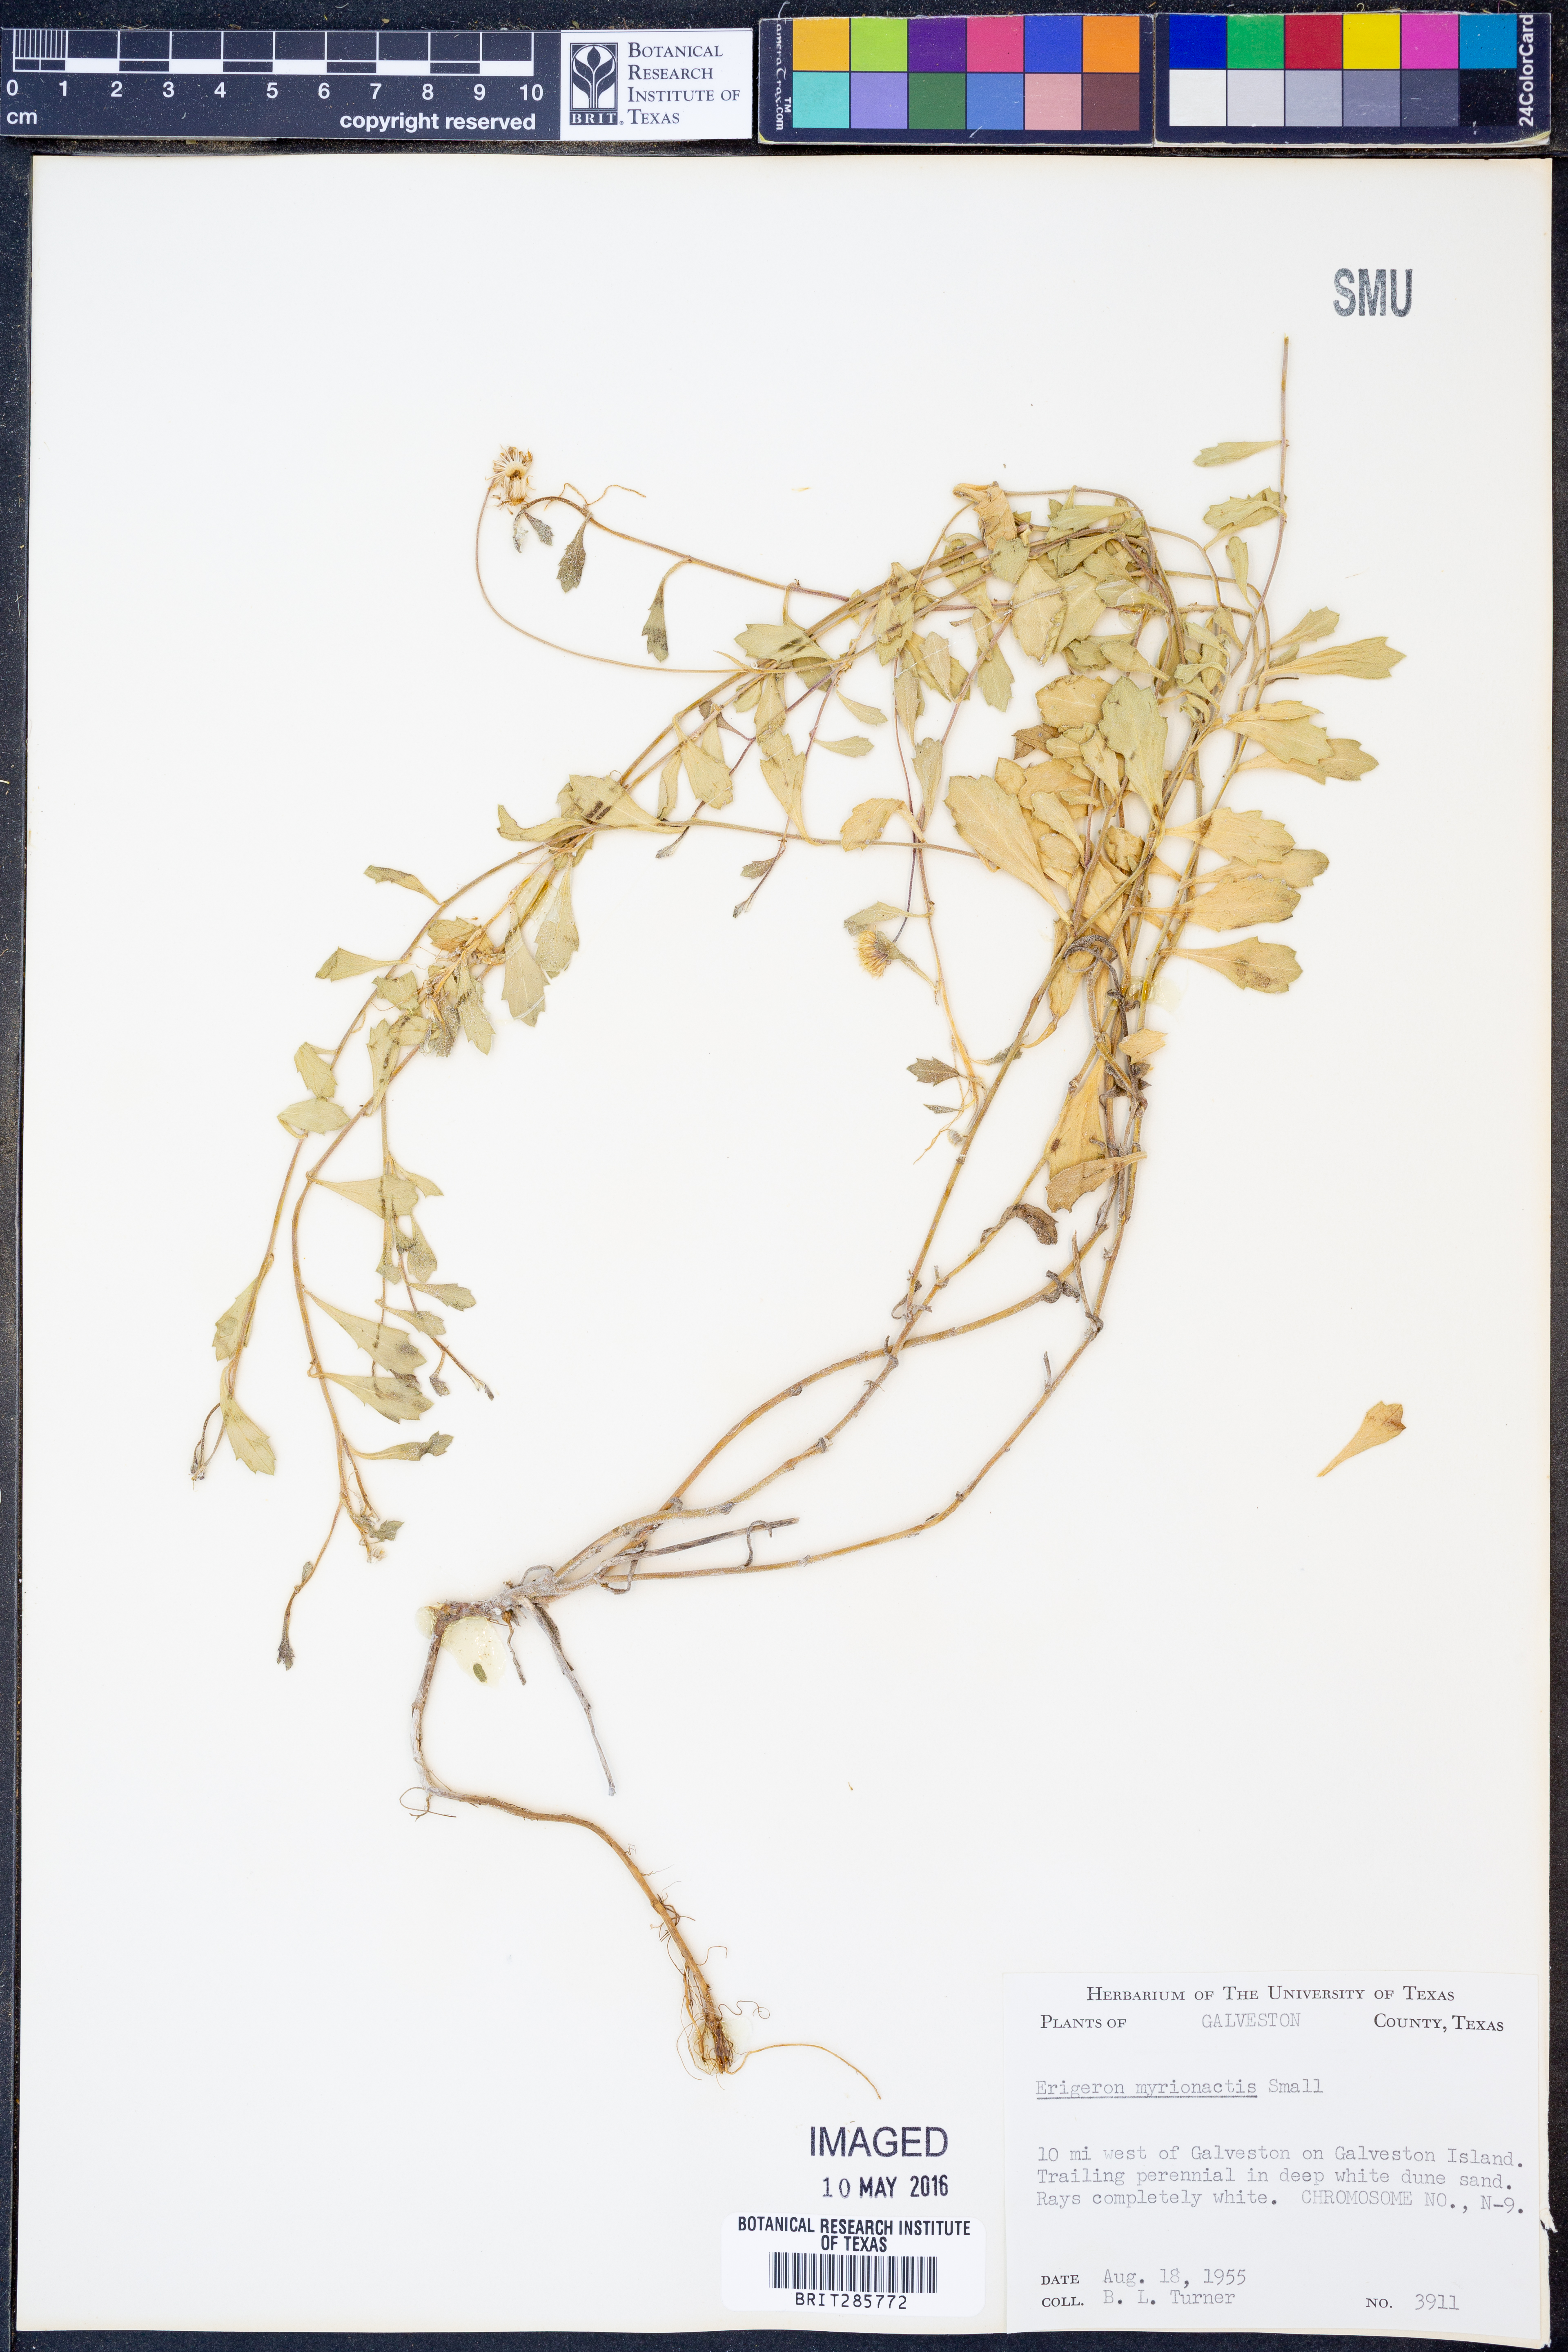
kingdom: Plantae
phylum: Tracheophyta
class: Magnoliopsida
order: Asterales
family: Asteraceae
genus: Erigeron
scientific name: Erigeron procumbens
